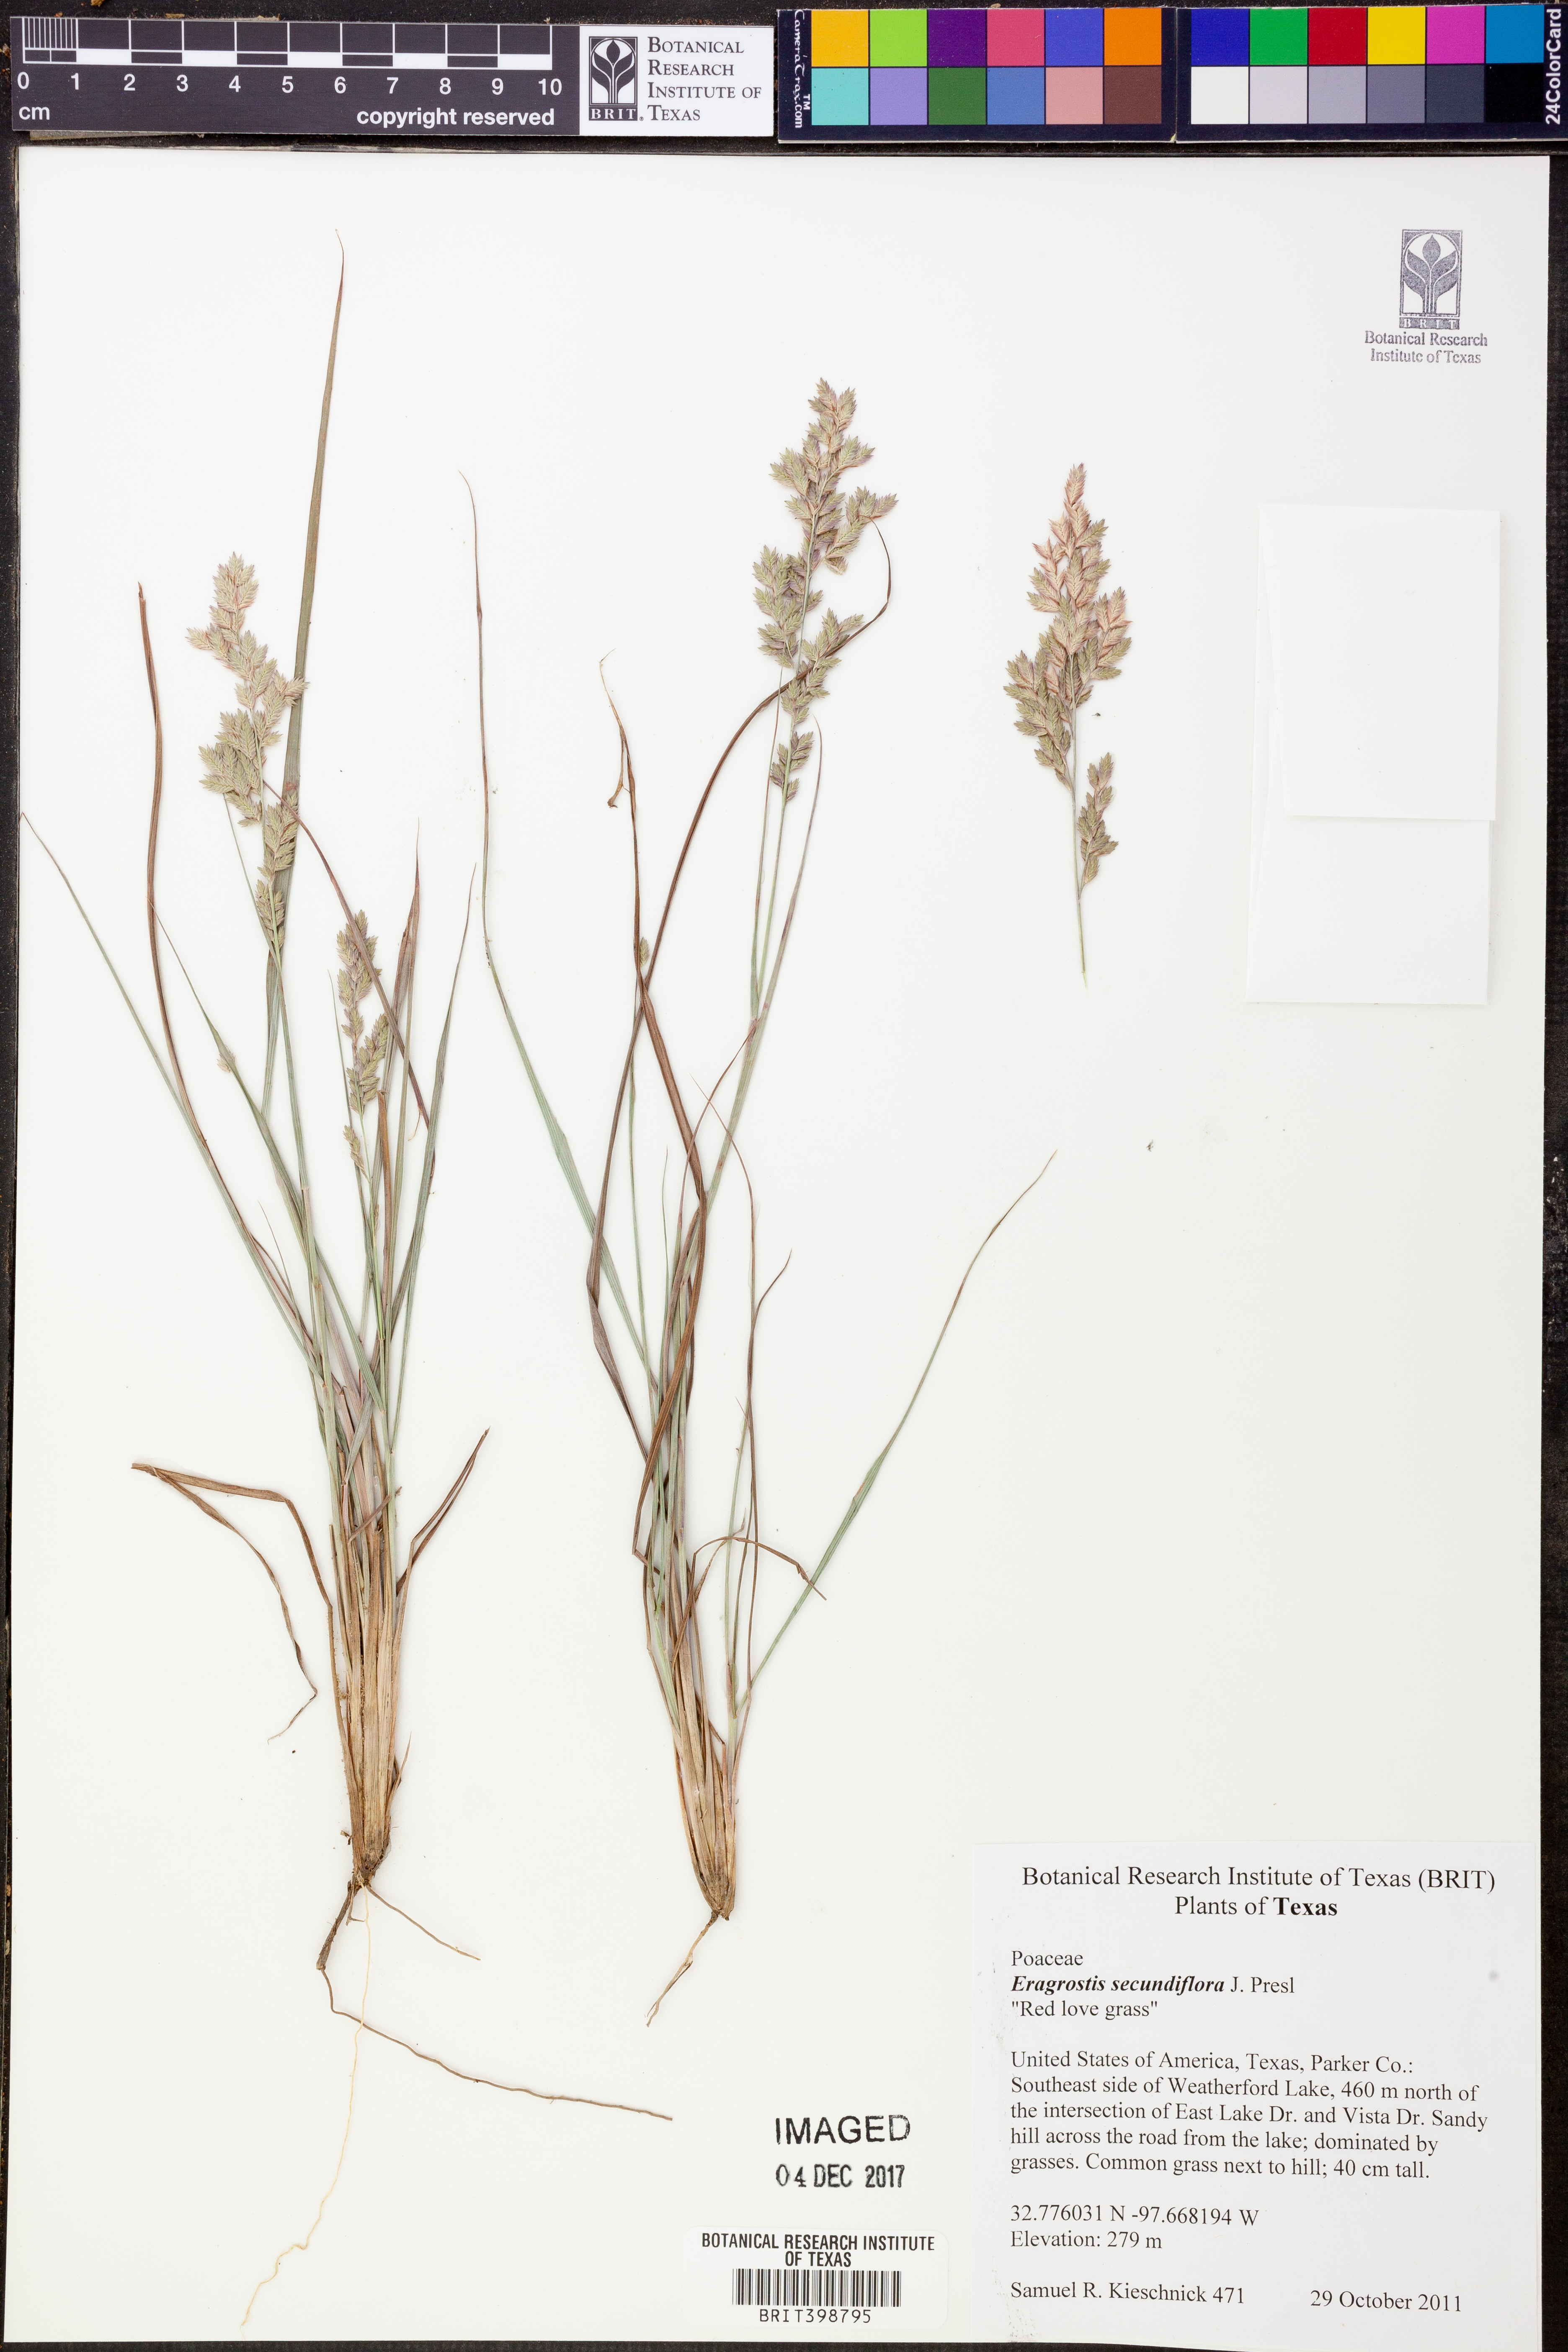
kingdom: Plantae
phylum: Tracheophyta
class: Liliopsida
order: Poales
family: Poaceae
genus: Eragrostis
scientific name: Eragrostis secundiflora
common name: Red love grass
